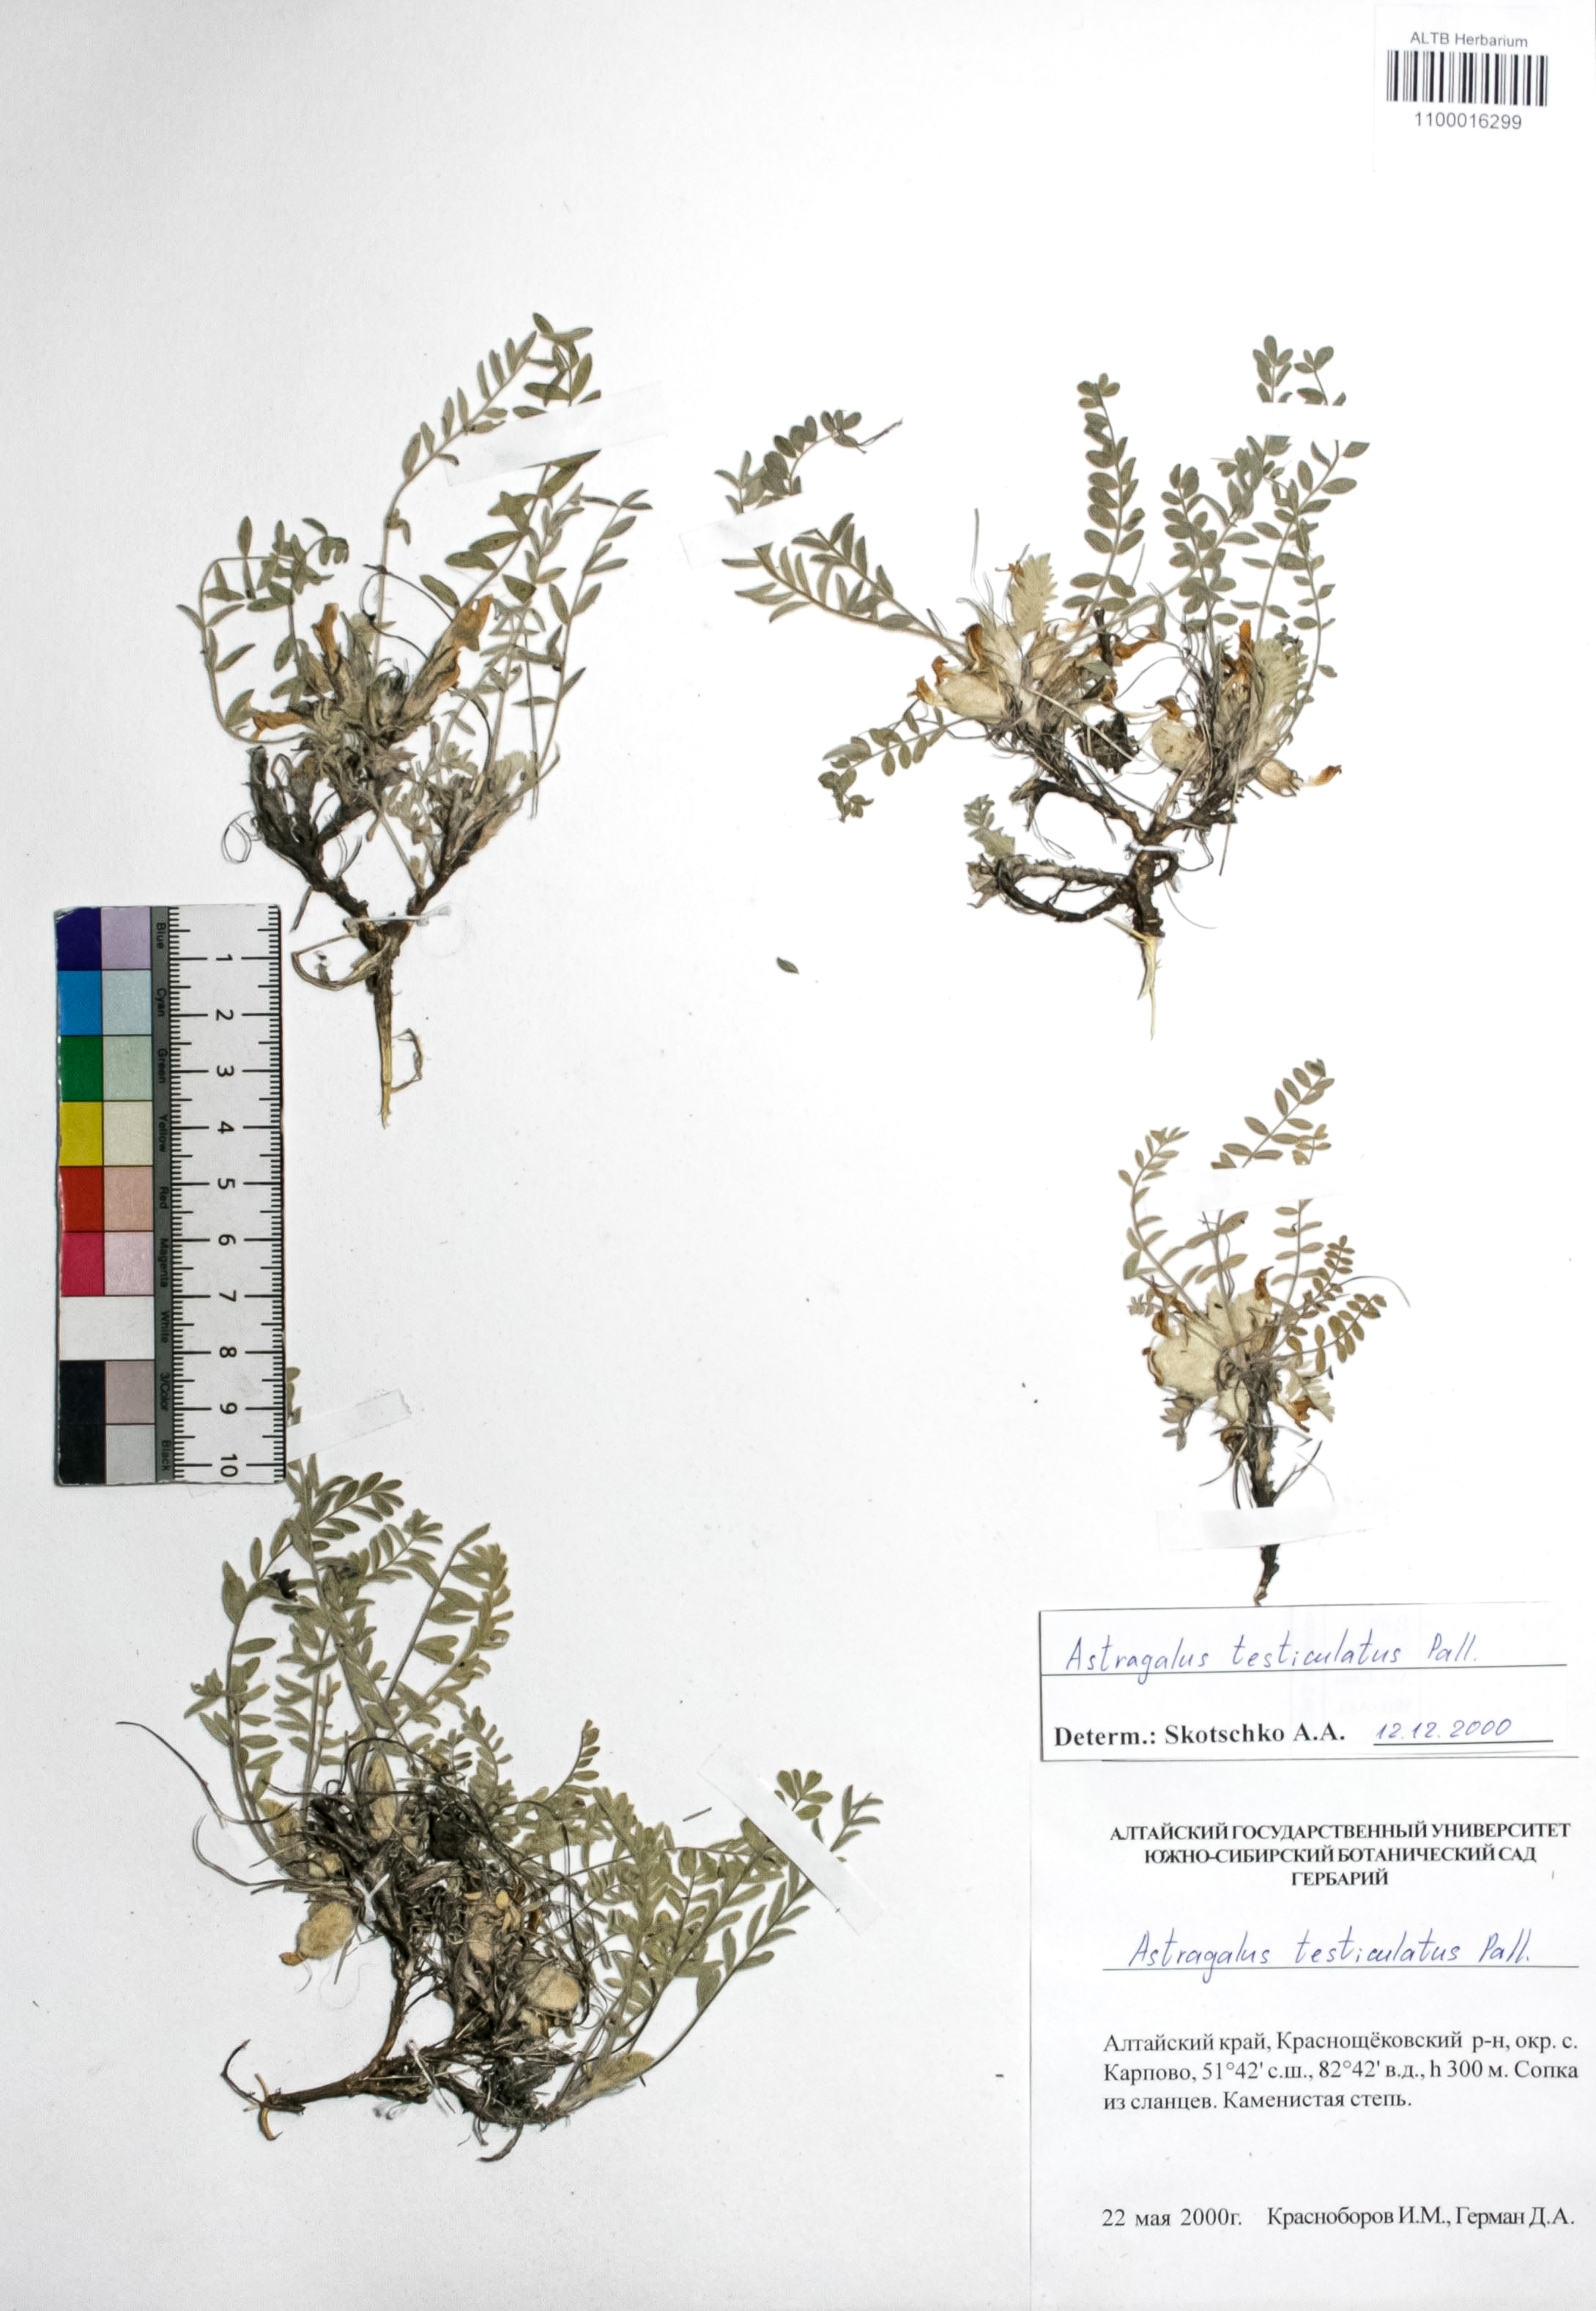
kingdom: Plantae
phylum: Tracheophyta
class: Magnoliopsida
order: Fabales
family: Fabaceae
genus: Astragalus
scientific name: Astragalus testiculatus
